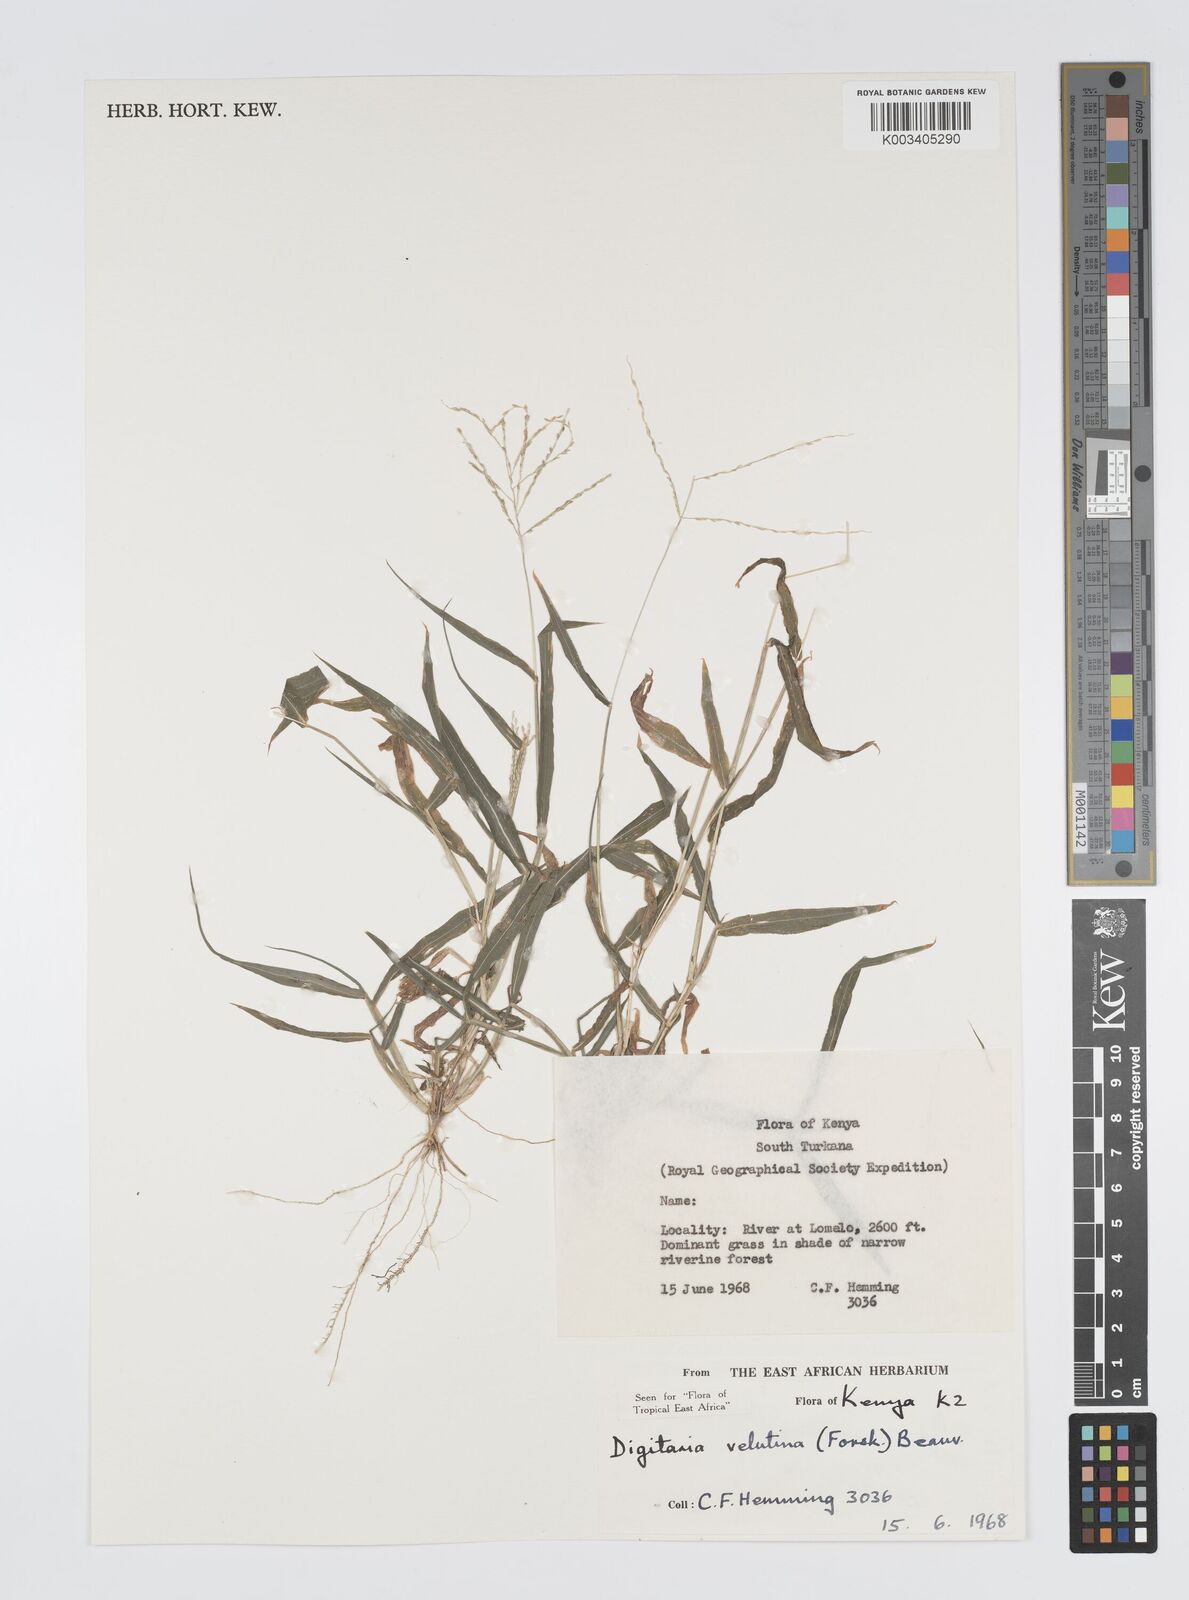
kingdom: Plantae
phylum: Tracheophyta
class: Liliopsida
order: Poales
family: Poaceae
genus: Digitaria
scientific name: Digitaria velutina
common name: Long-plume finger grass
